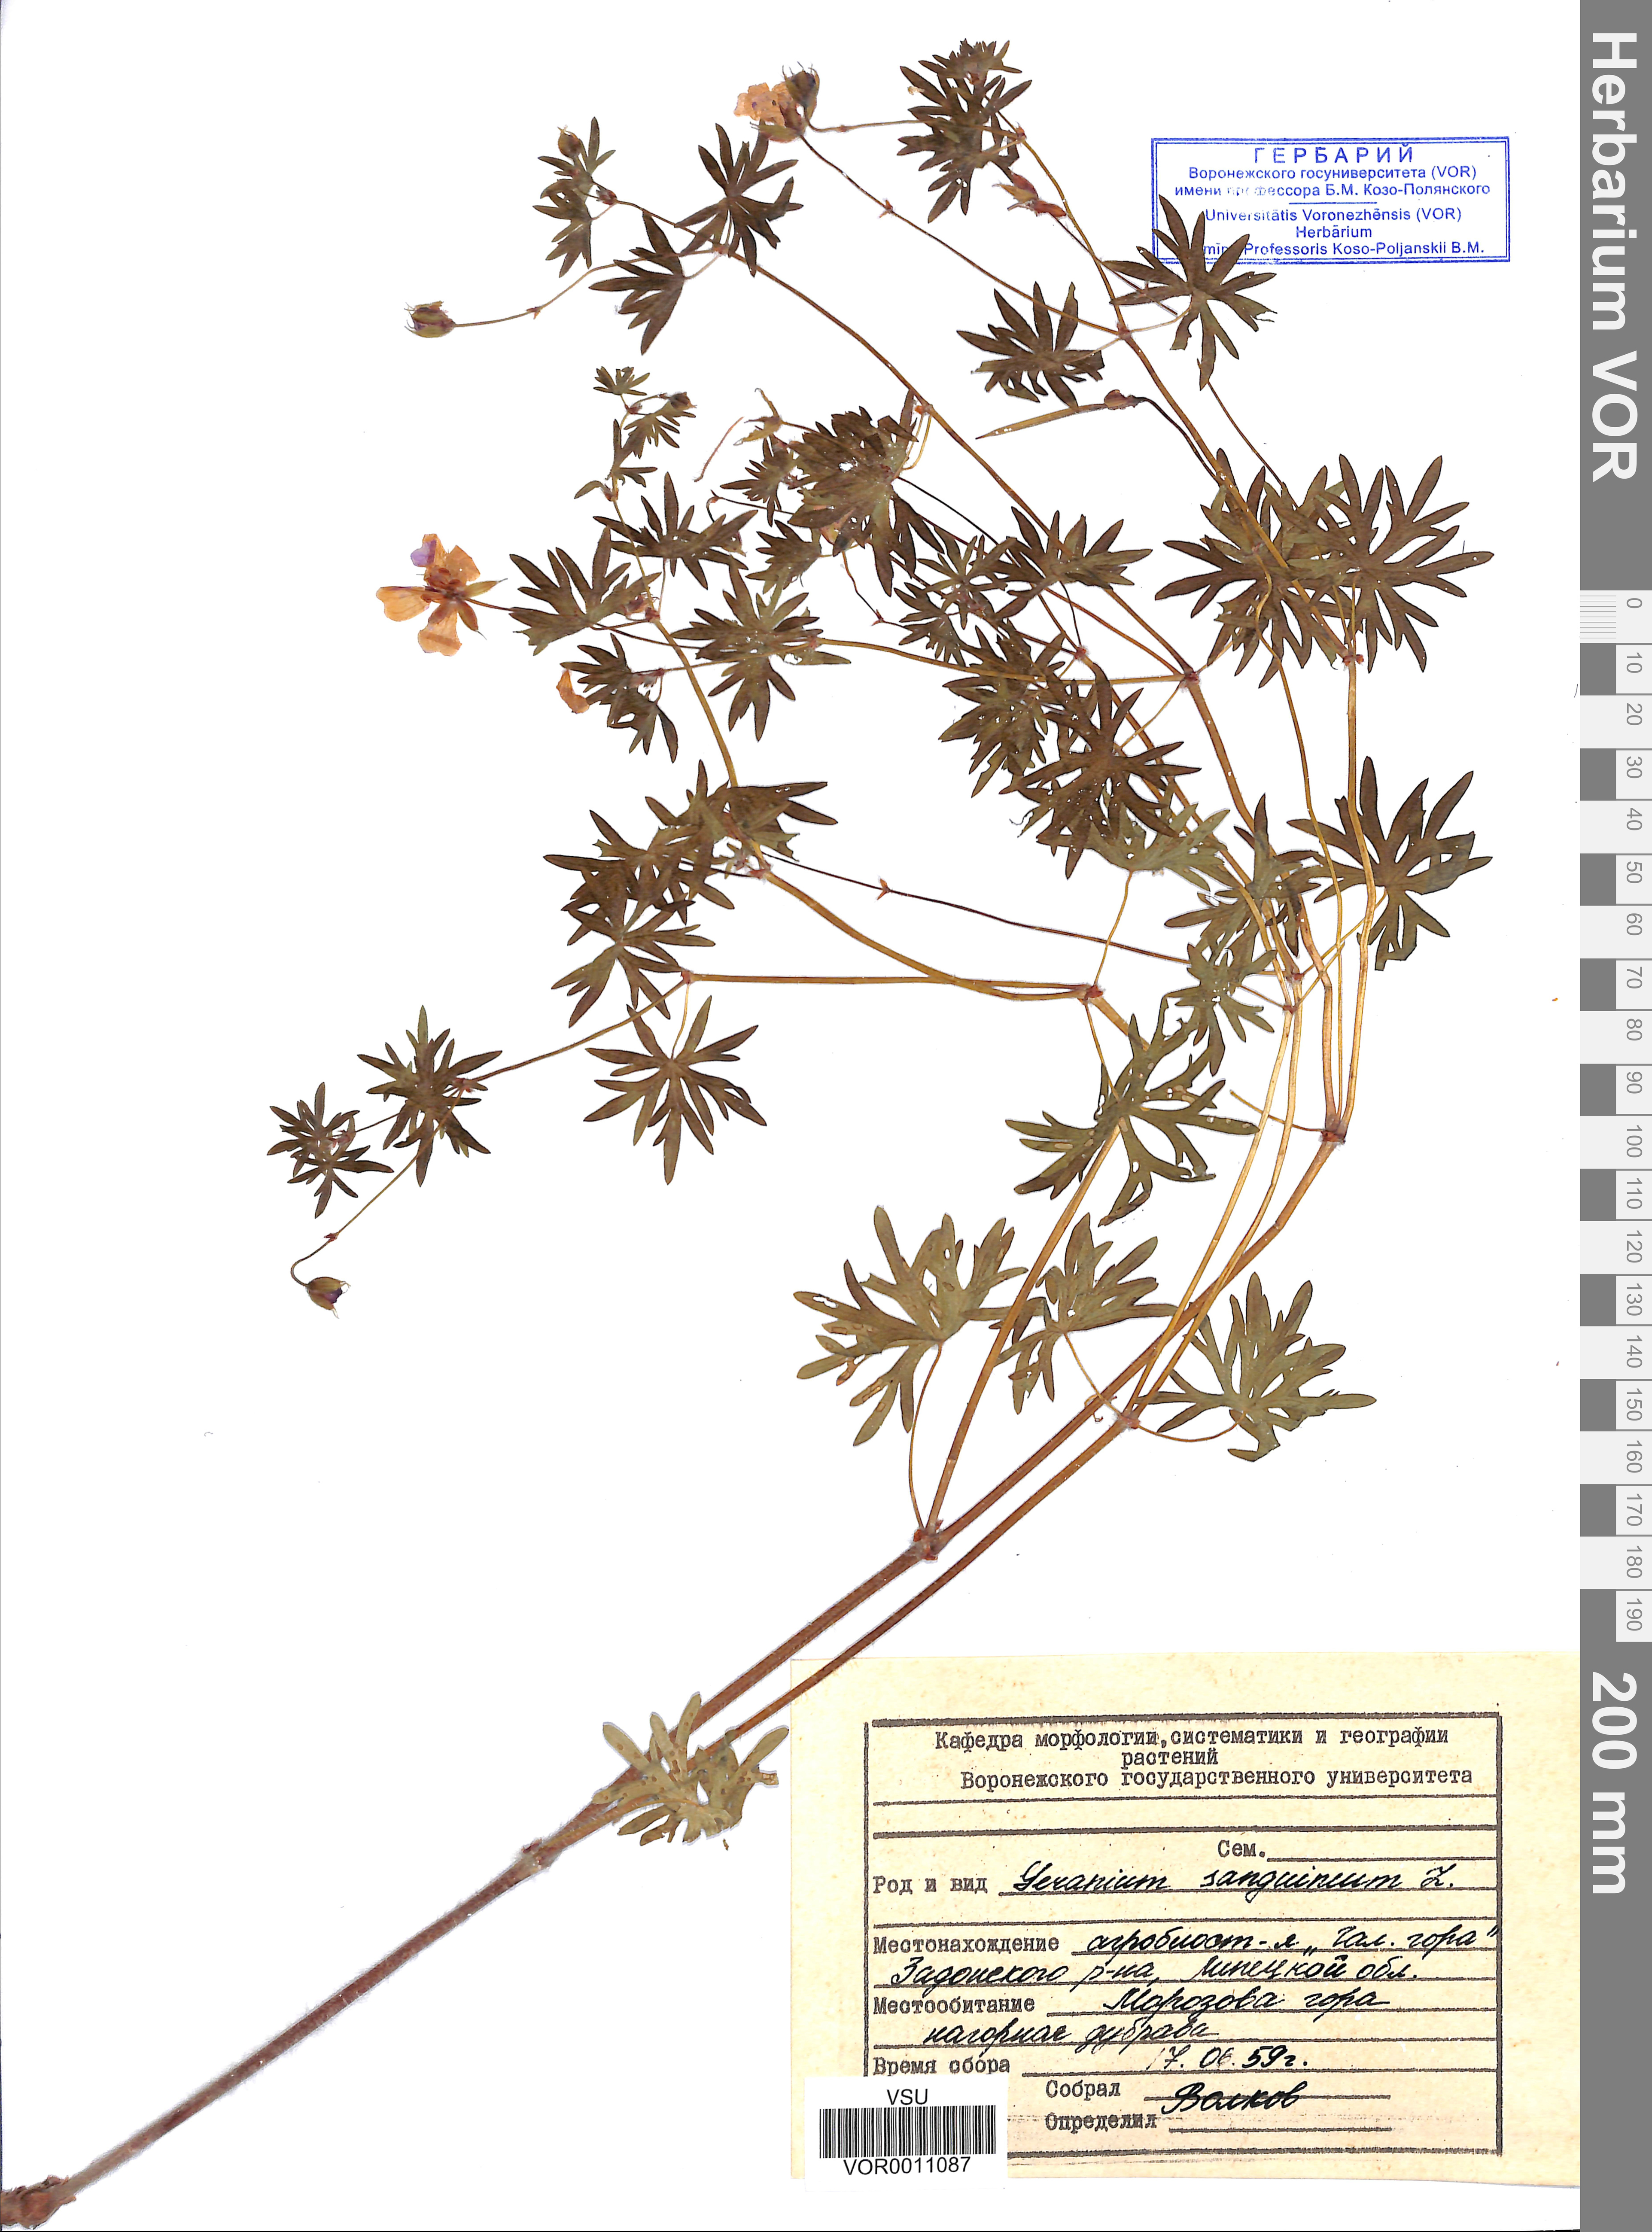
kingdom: Plantae
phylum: Tracheophyta
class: Magnoliopsida
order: Geraniales
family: Geraniaceae
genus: Geranium
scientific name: Geranium sanguineum
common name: Bloody crane's-bill
